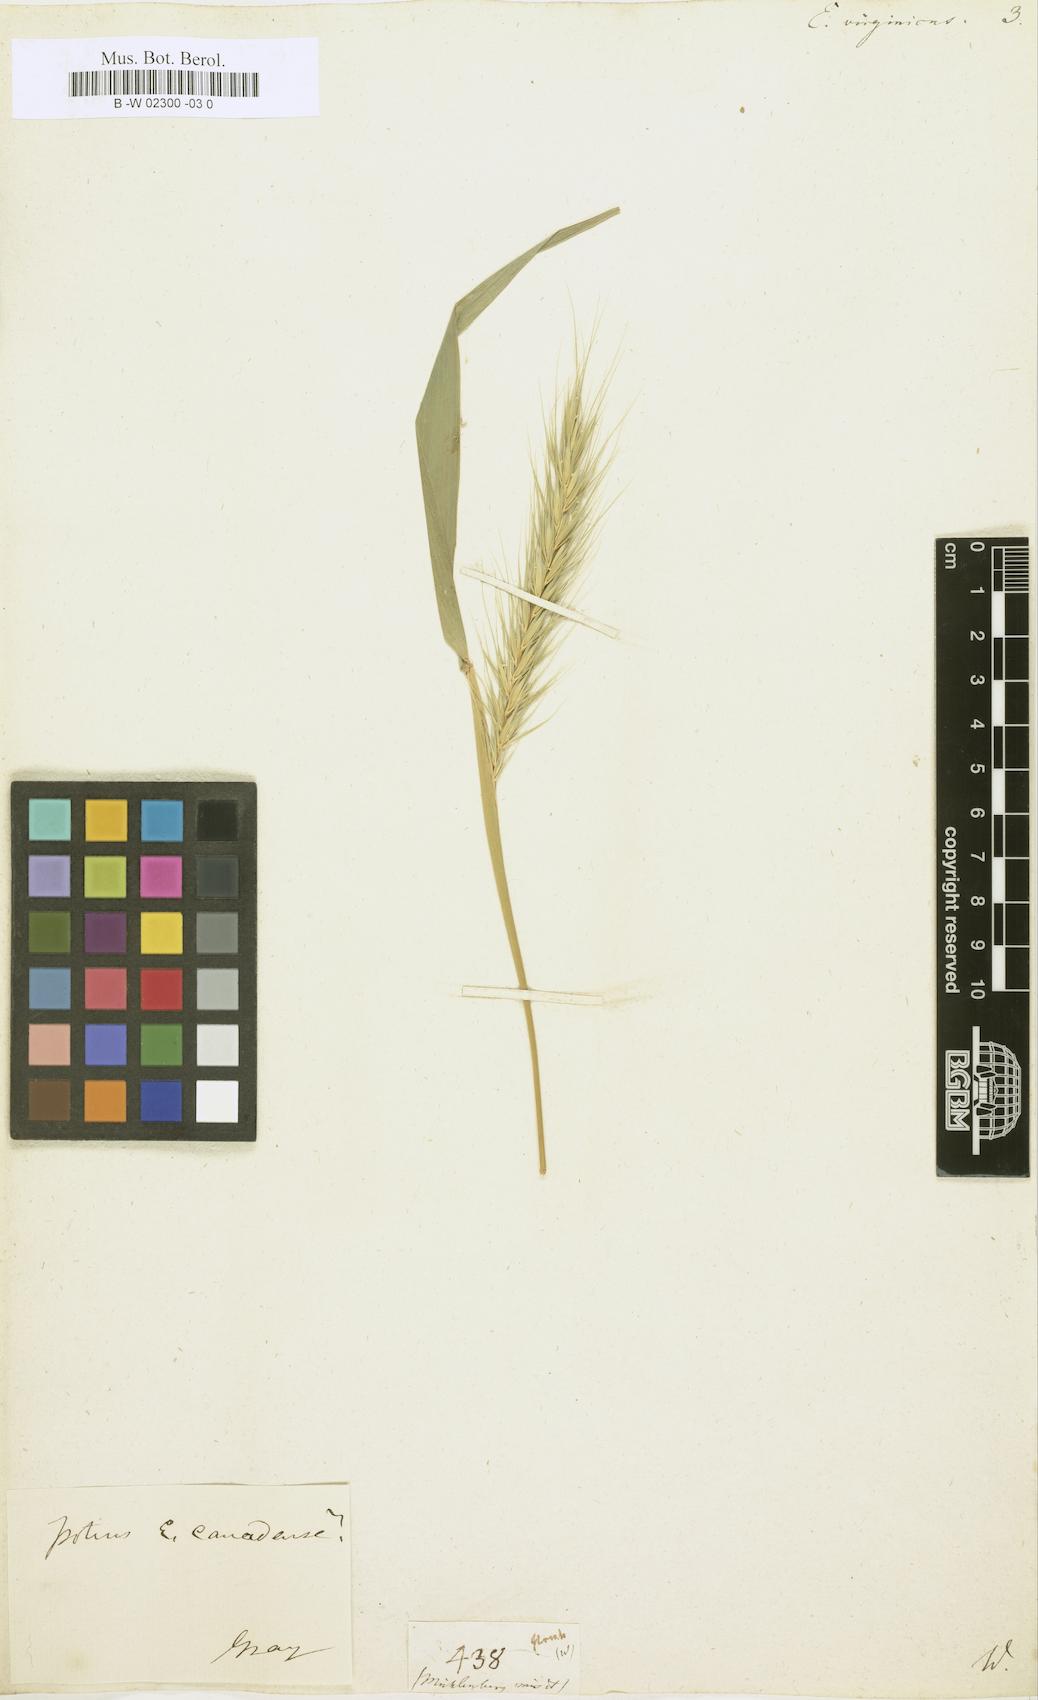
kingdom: Plantae
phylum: Tracheophyta
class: Liliopsida
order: Poales
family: Poaceae
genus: Elymus
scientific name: Elymus virginicus
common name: Common eastern wildrye
